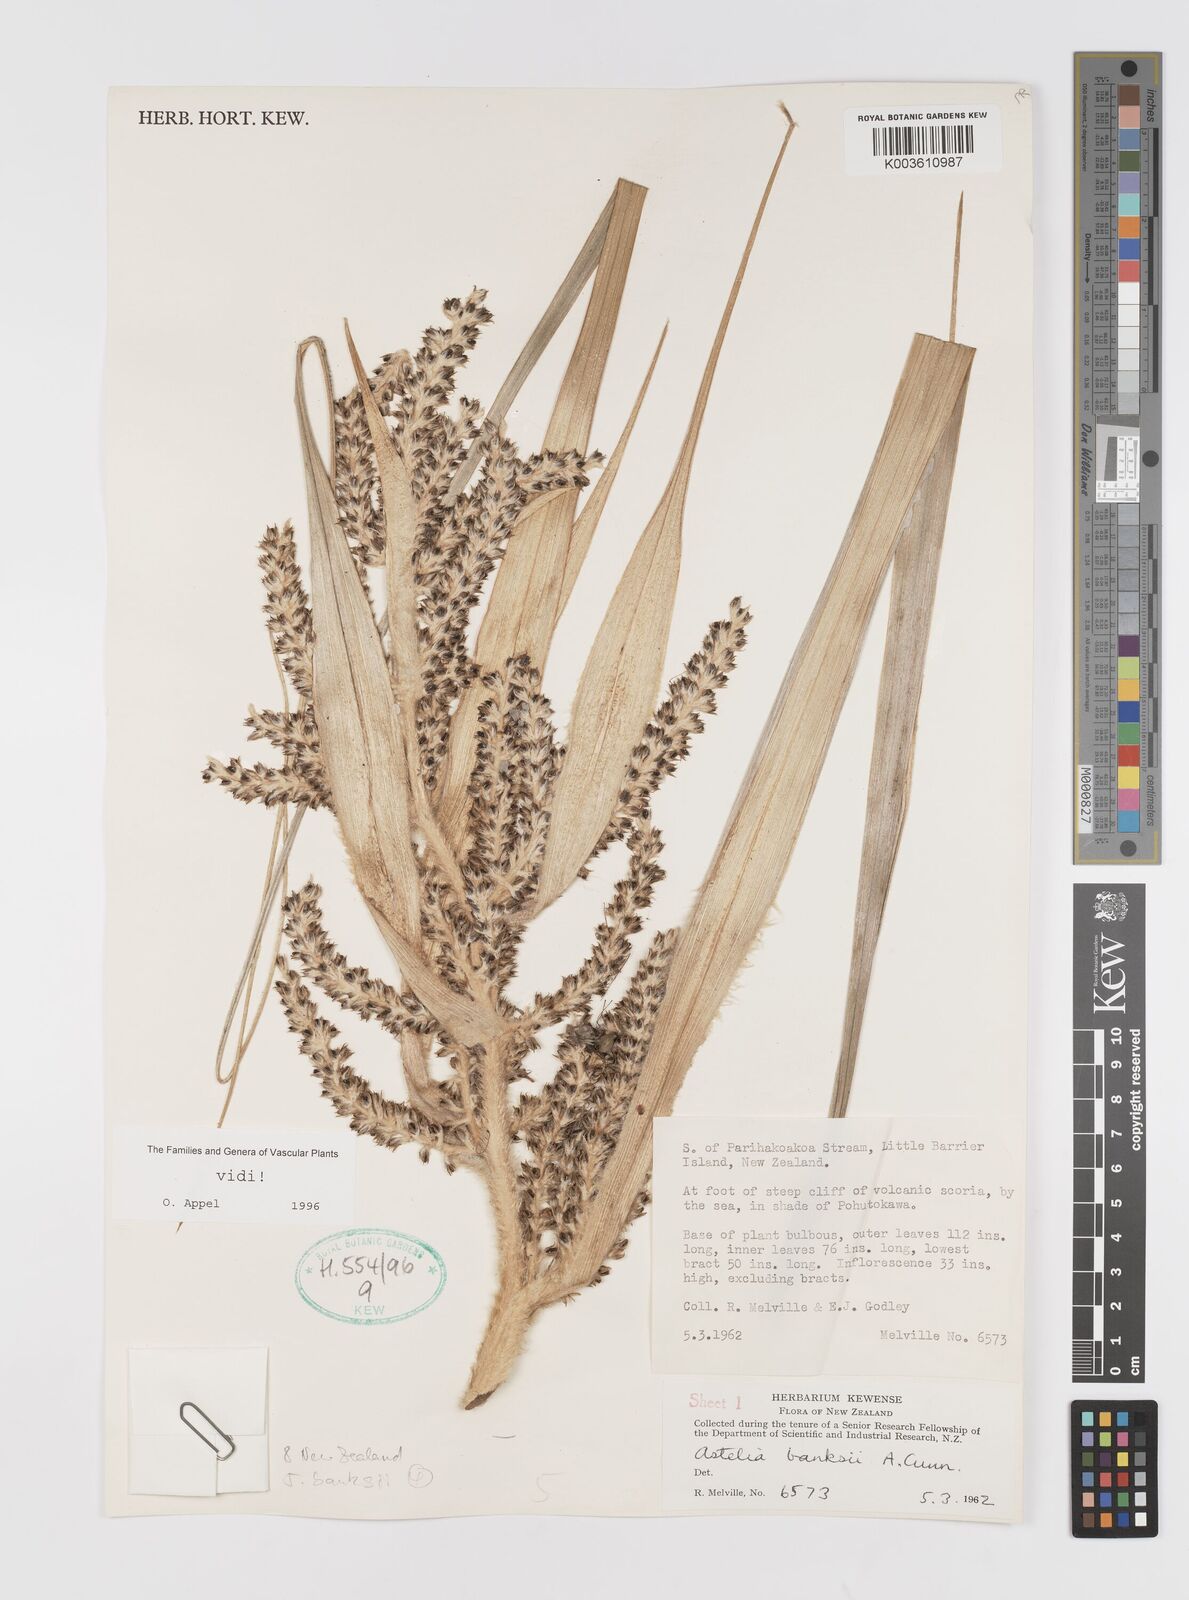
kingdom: Plantae
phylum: Tracheophyta
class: Liliopsida
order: Asparagales
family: Asteliaceae
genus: Astelia
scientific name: Astelia banksii
